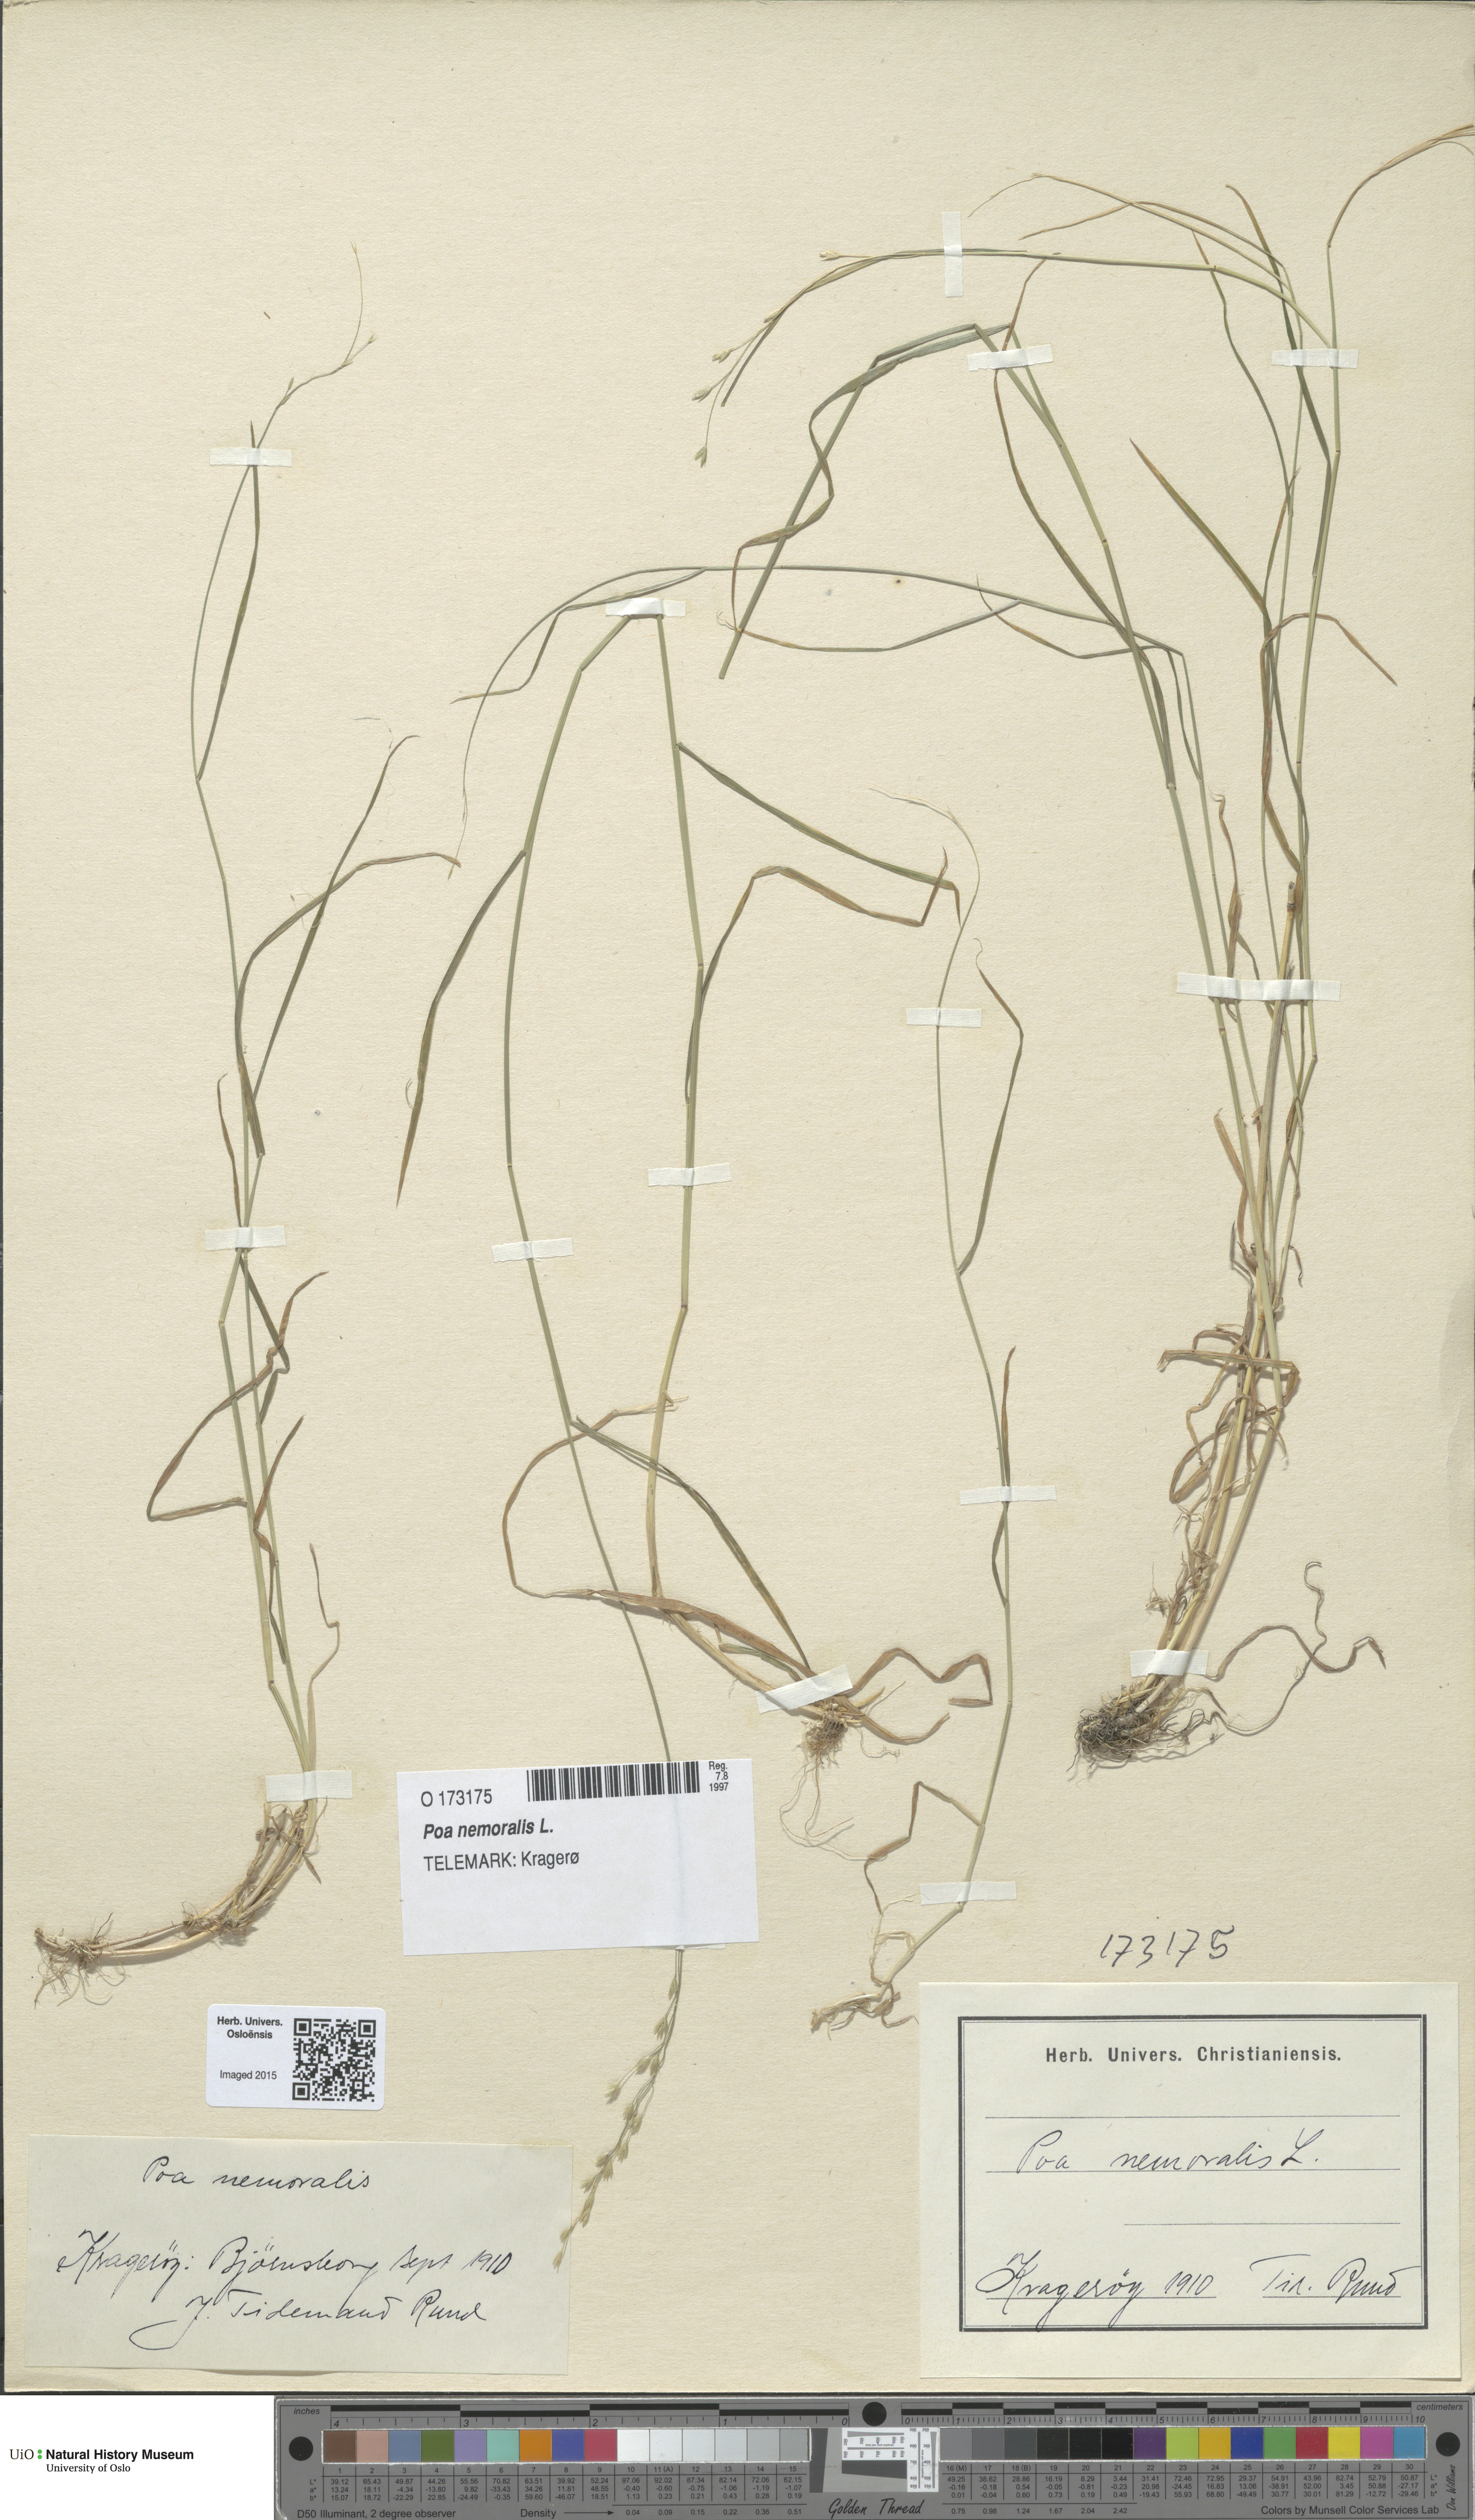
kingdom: Plantae
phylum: Tracheophyta
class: Liliopsida
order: Poales
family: Poaceae
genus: Poa
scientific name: Poa nemoralis
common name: Wood bluegrass
